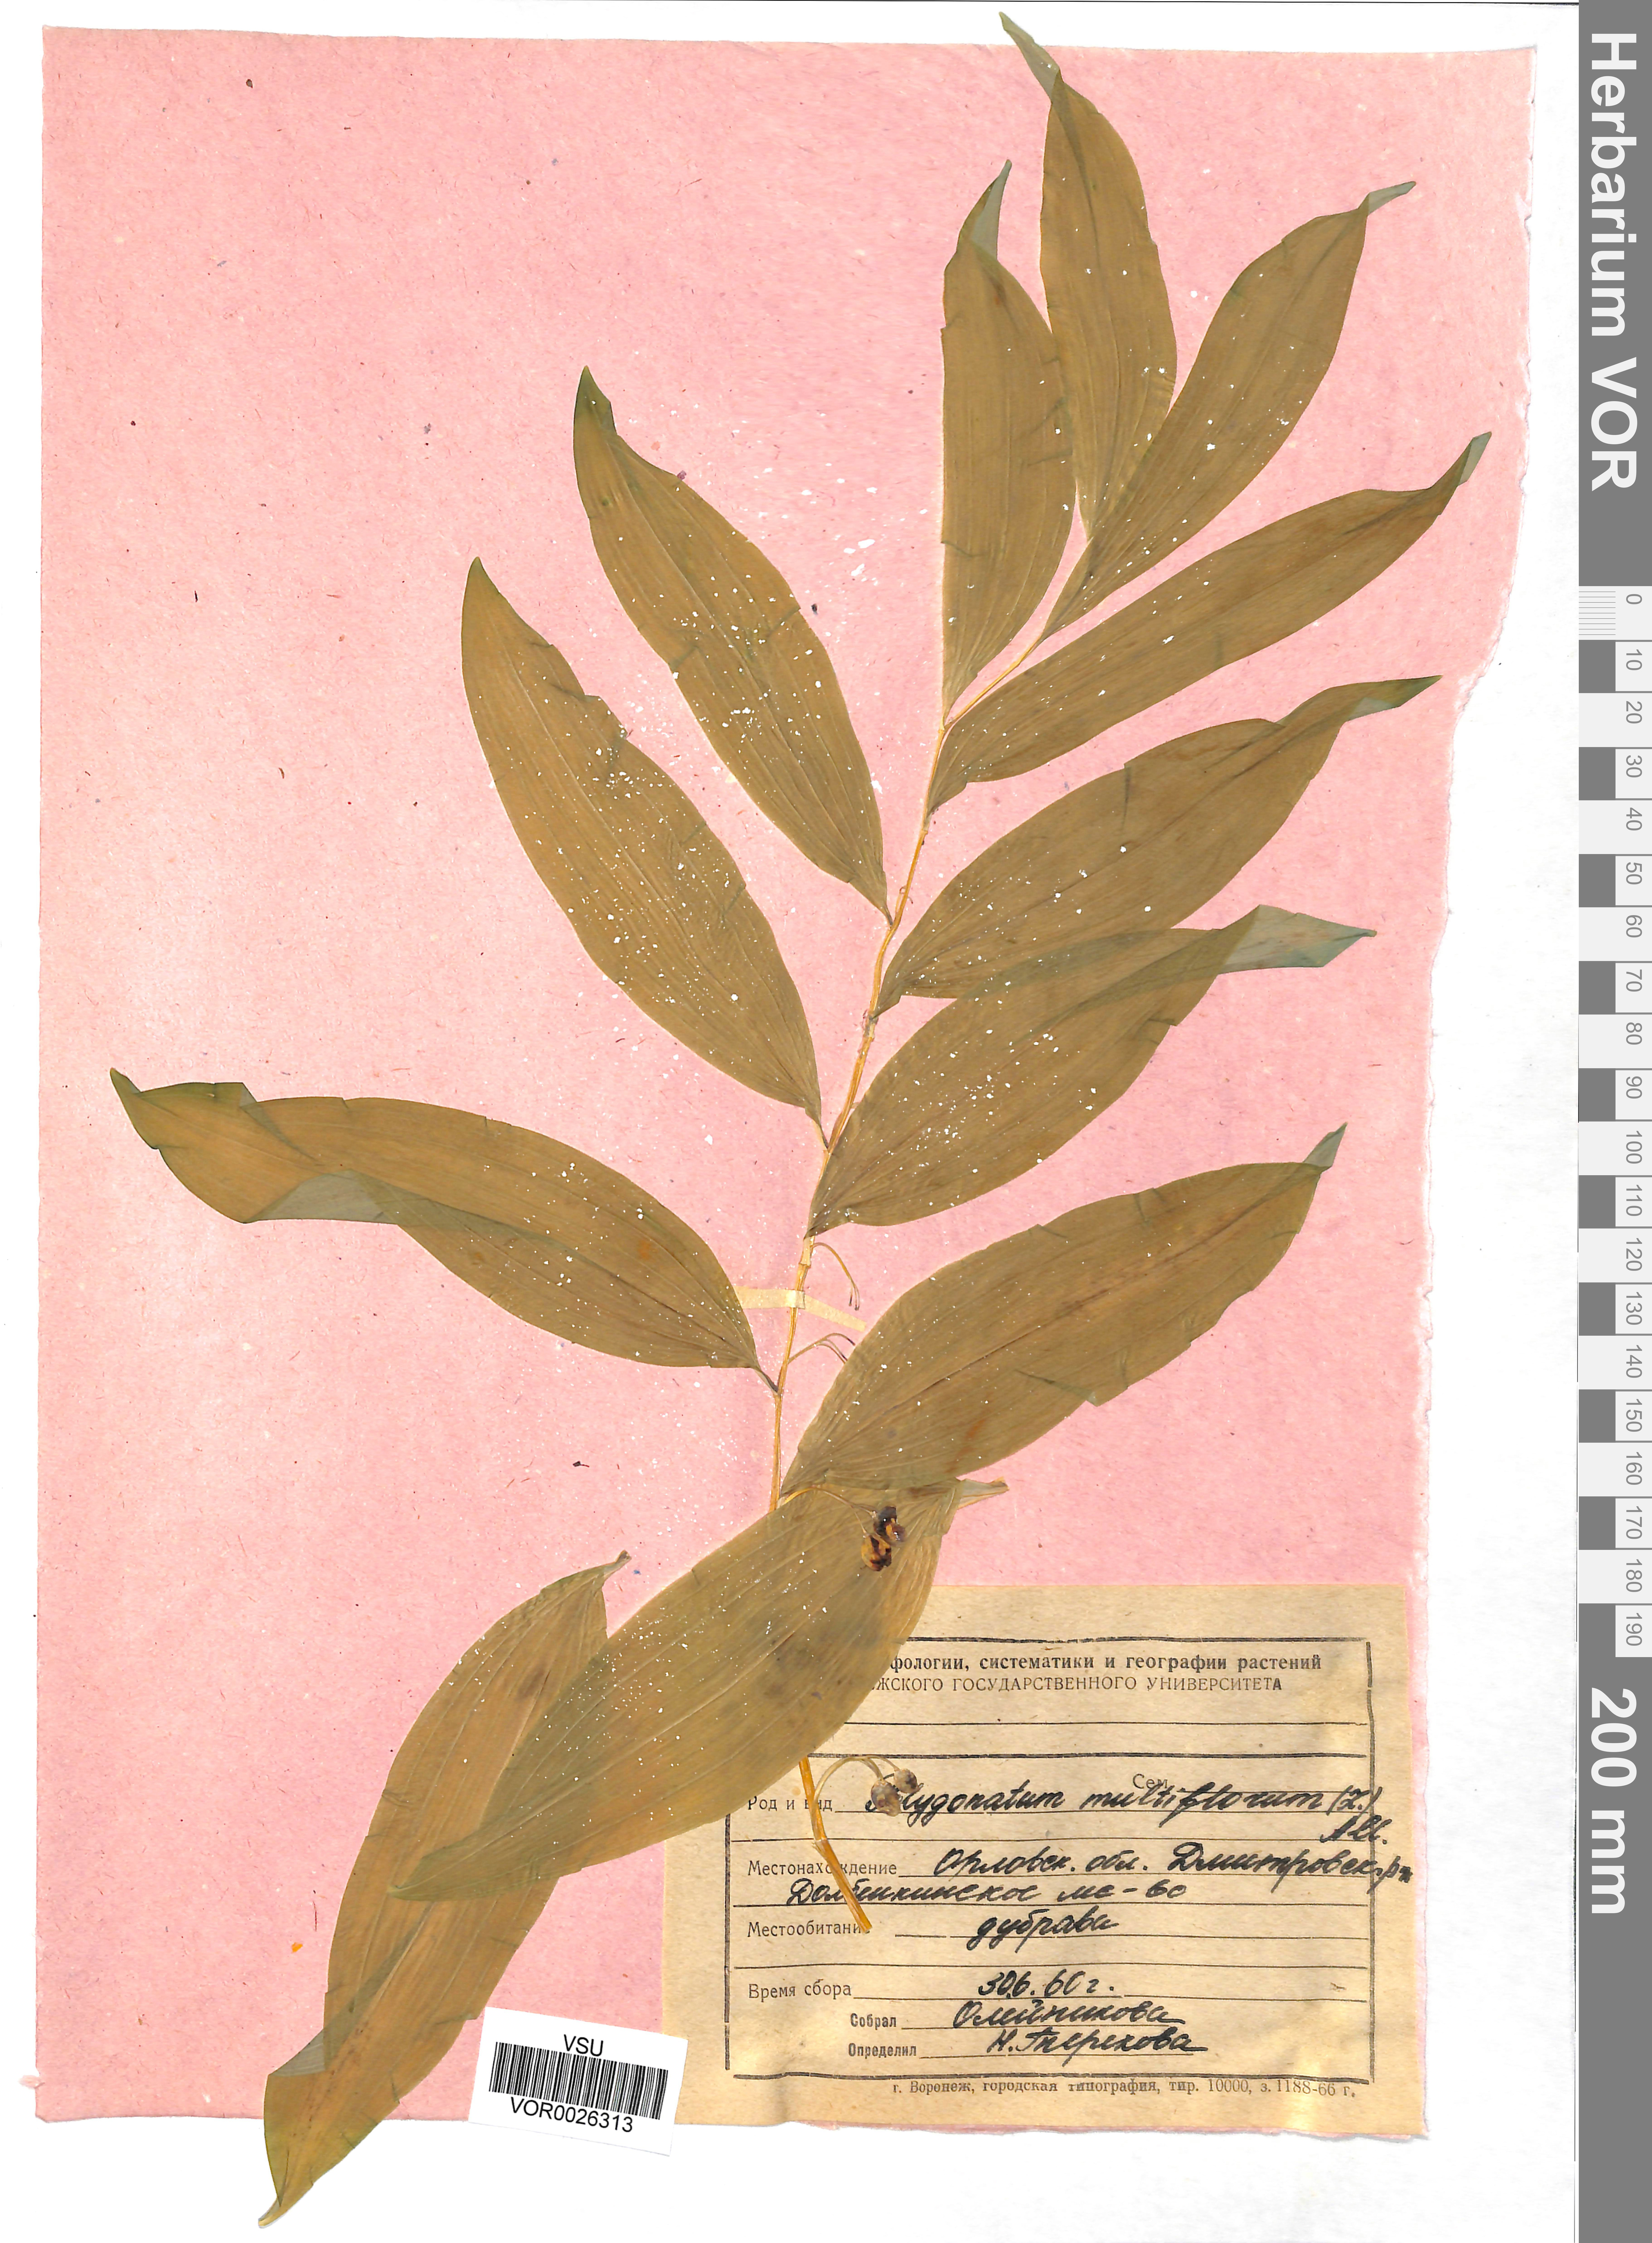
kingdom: Plantae
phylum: Tracheophyta
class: Liliopsida
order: Asparagales
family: Asparagaceae
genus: Polygonatum
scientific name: Polygonatum multiflorum
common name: Solomon's-seal
